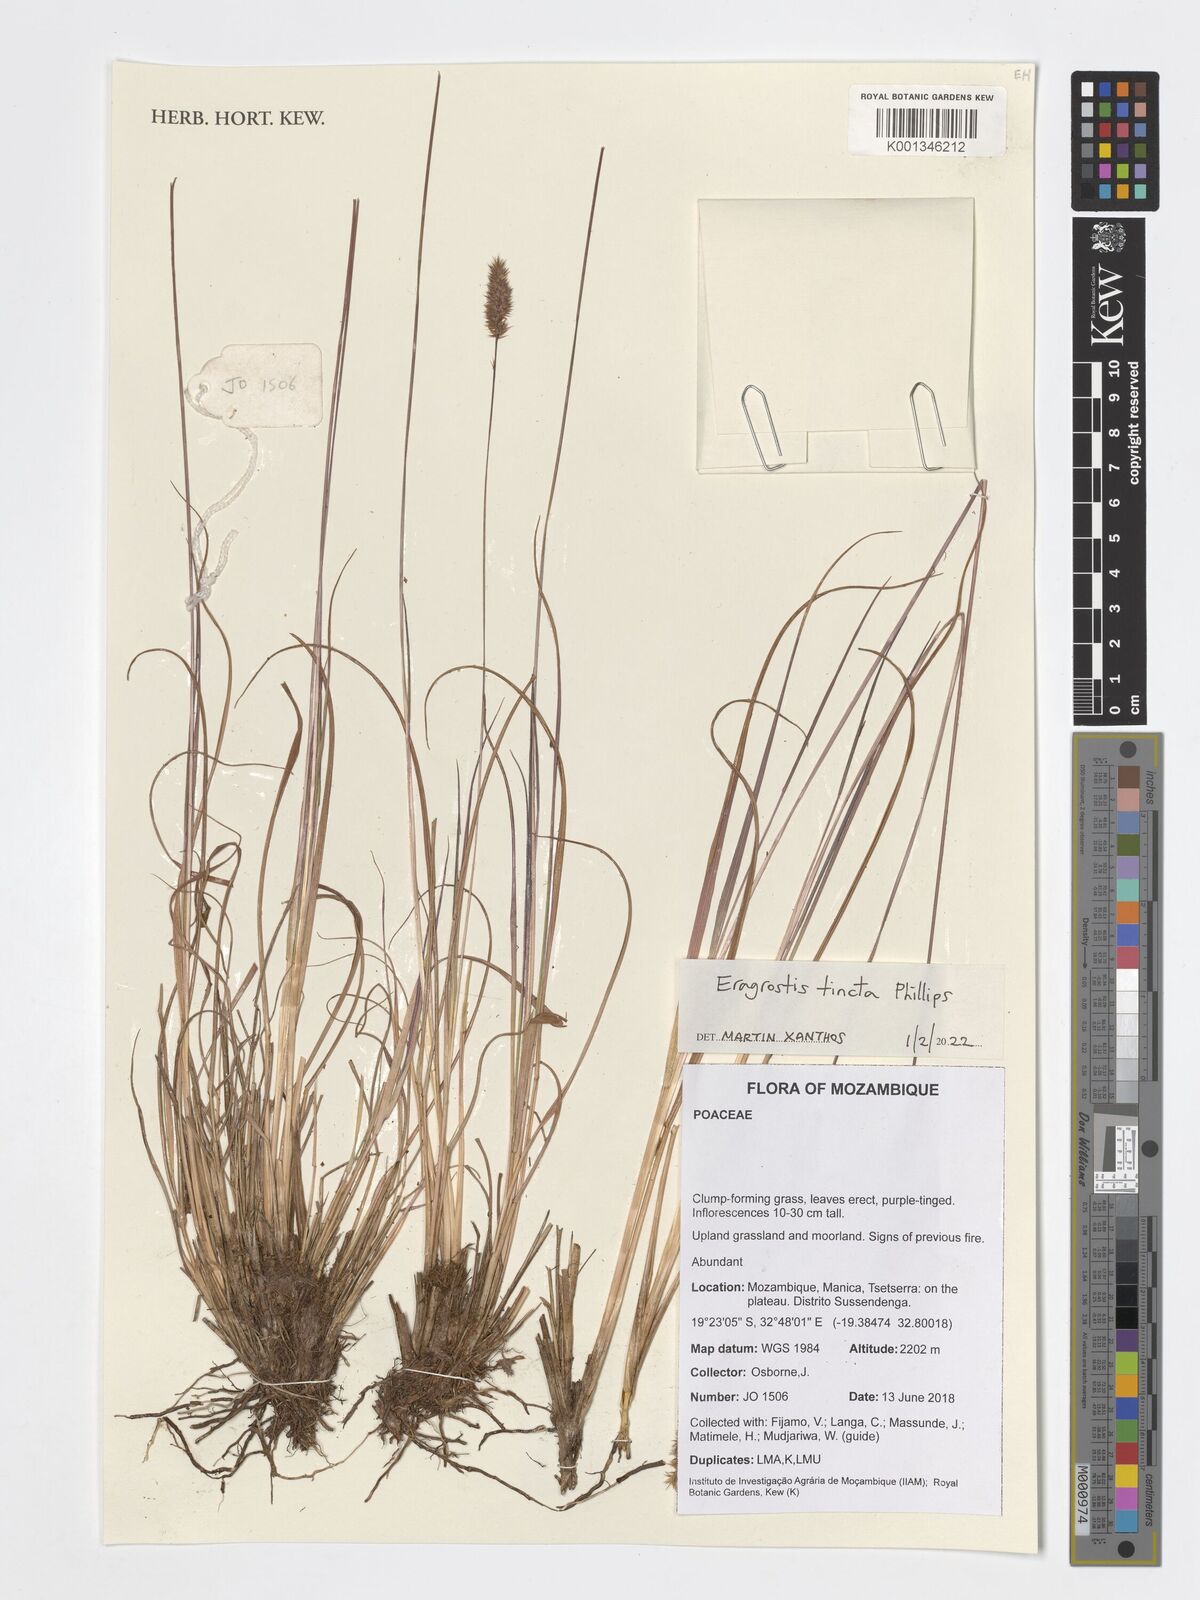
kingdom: Plantae
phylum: Tracheophyta
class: Liliopsida
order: Poales
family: Poaceae
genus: Stiburus
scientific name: Stiburus alopecuroides
